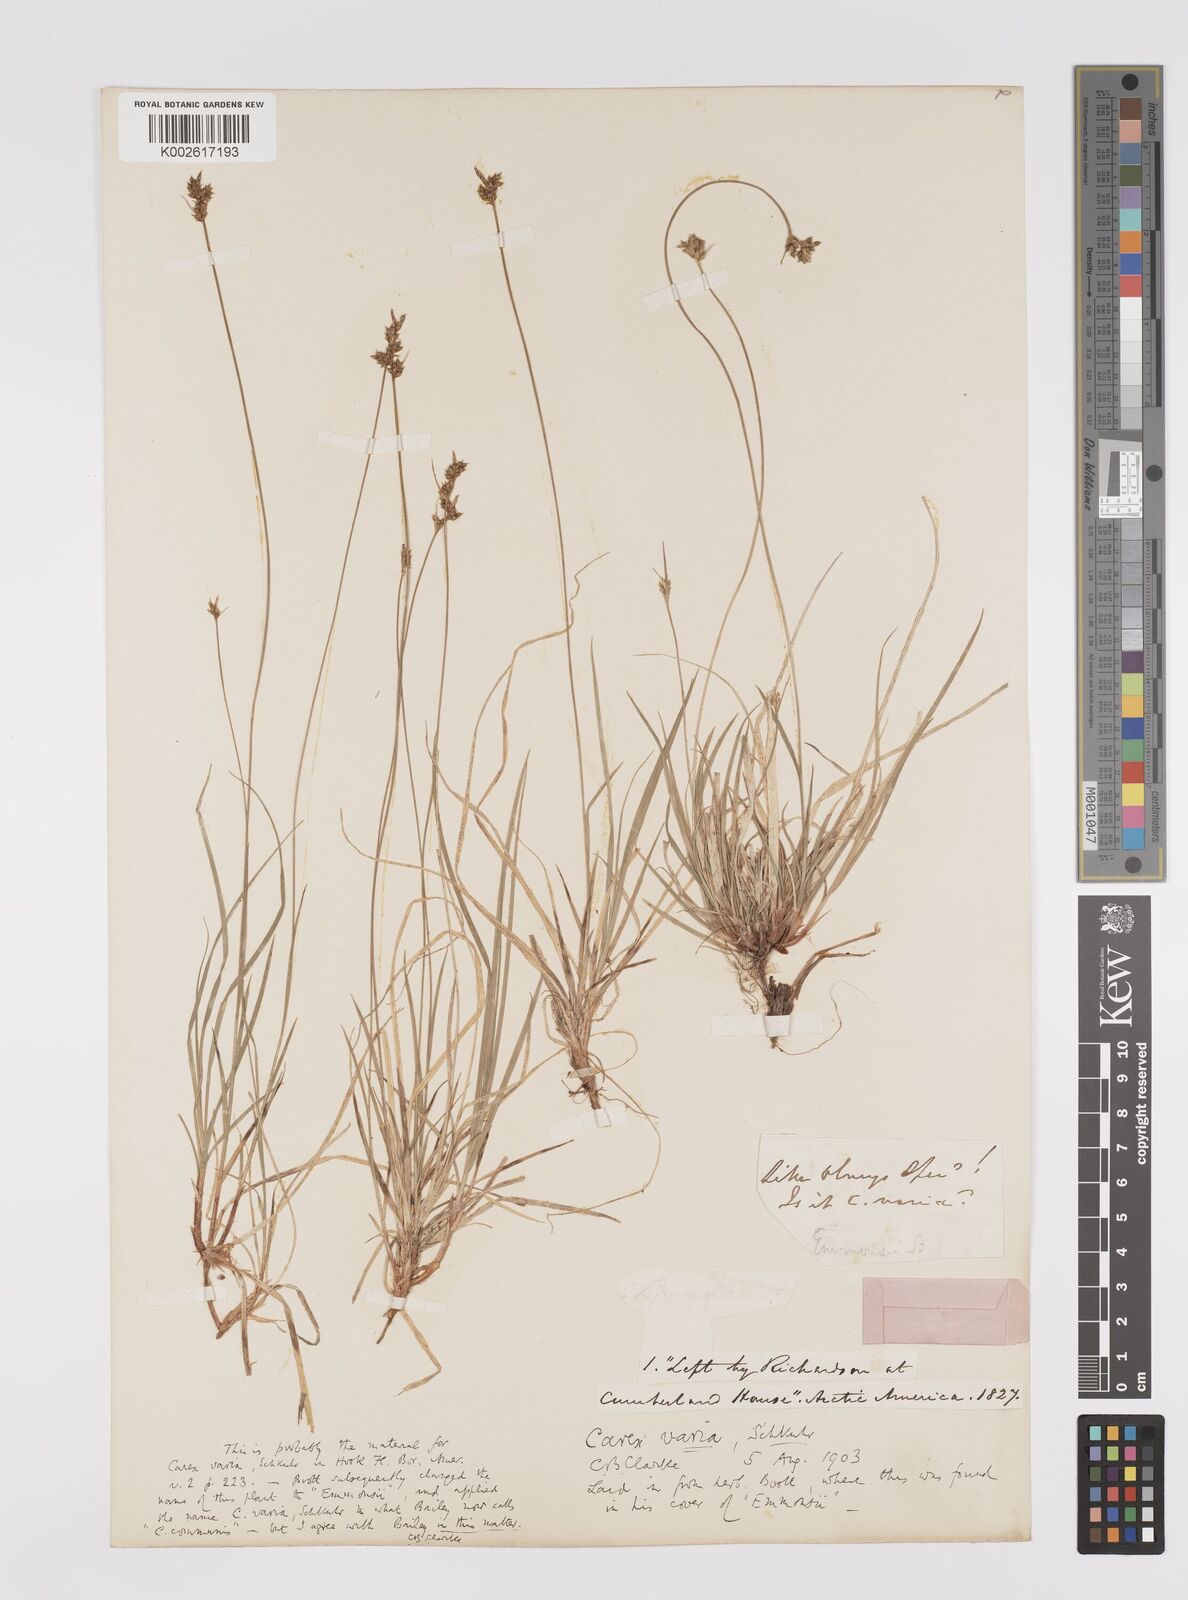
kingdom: Plantae
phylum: Tracheophyta
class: Liliopsida
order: Poales
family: Cyperaceae
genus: Carex
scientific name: Carex albicans
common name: Bellow-beaked sedge
